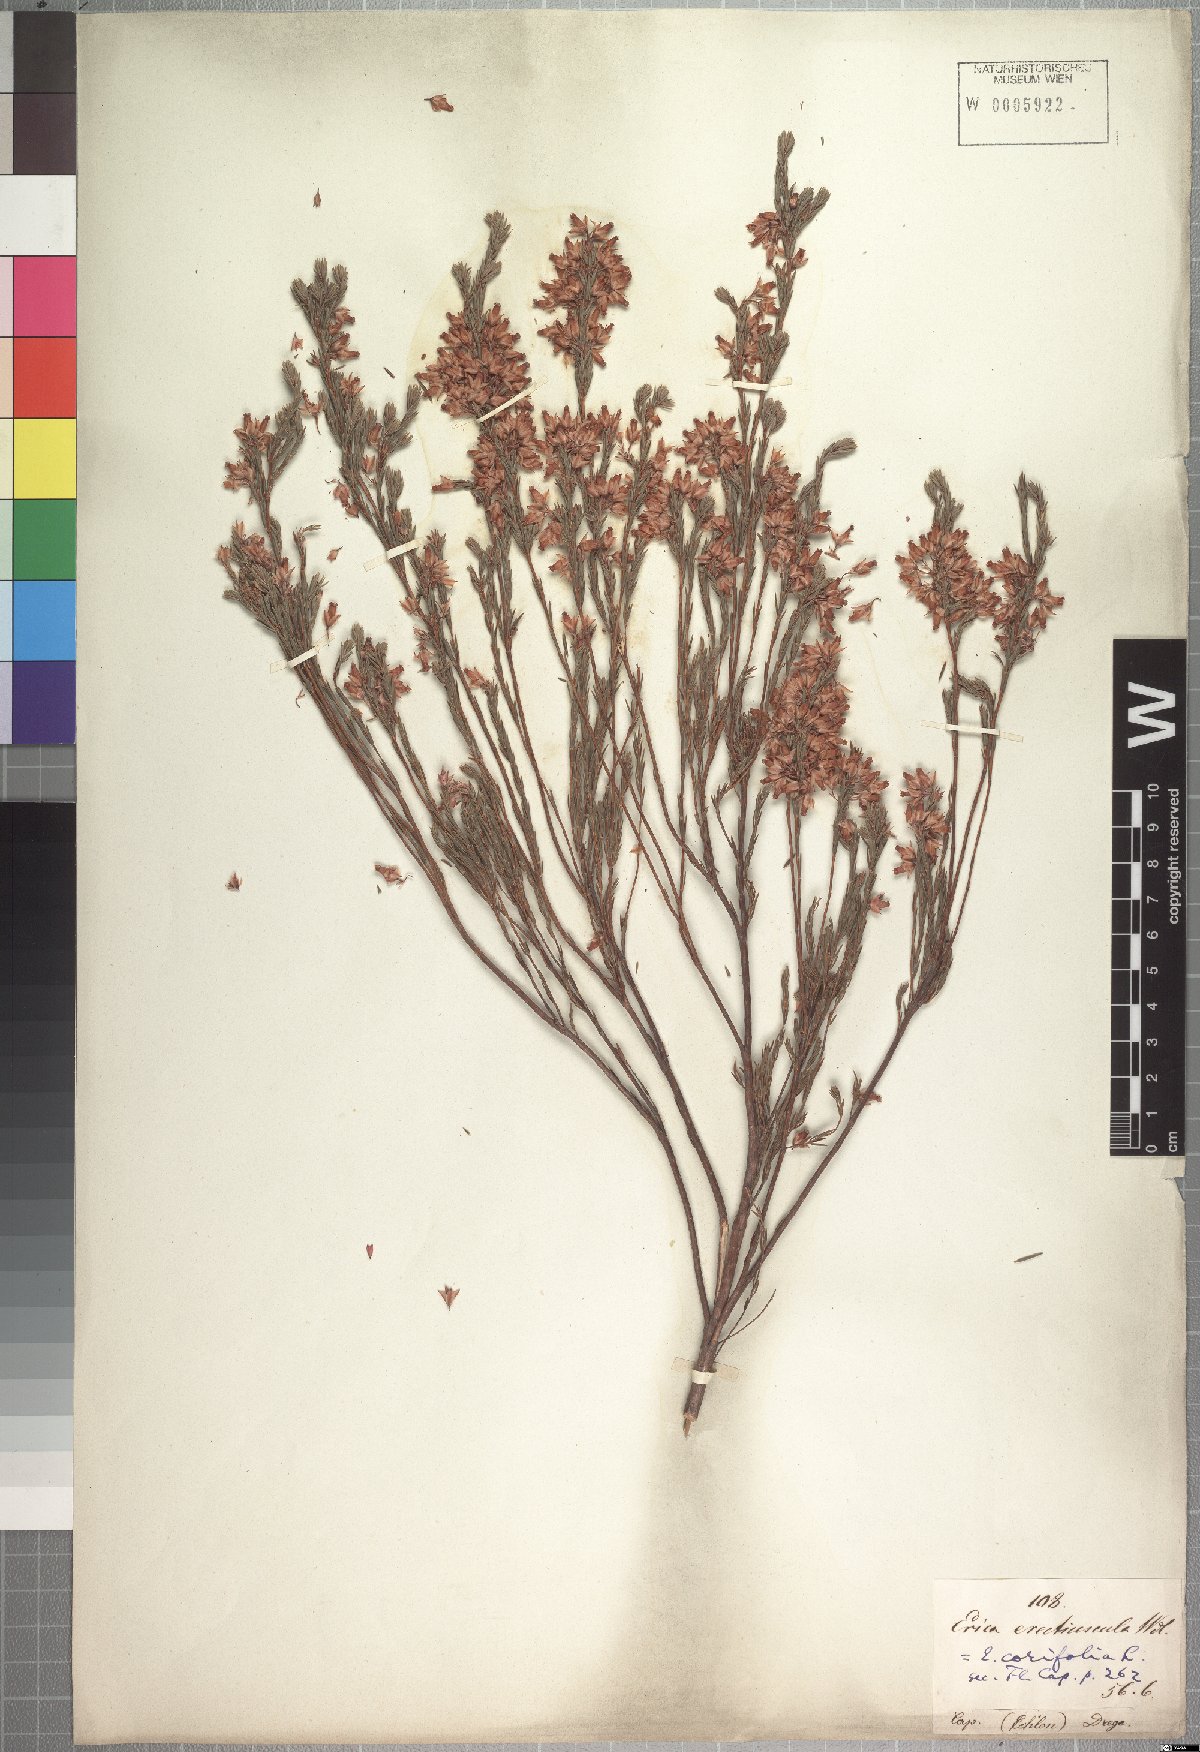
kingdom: Plantae
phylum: Tracheophyta
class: Magnoliopsida
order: Ericales
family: Ericaceae
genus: Erica
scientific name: Erica corifolia
